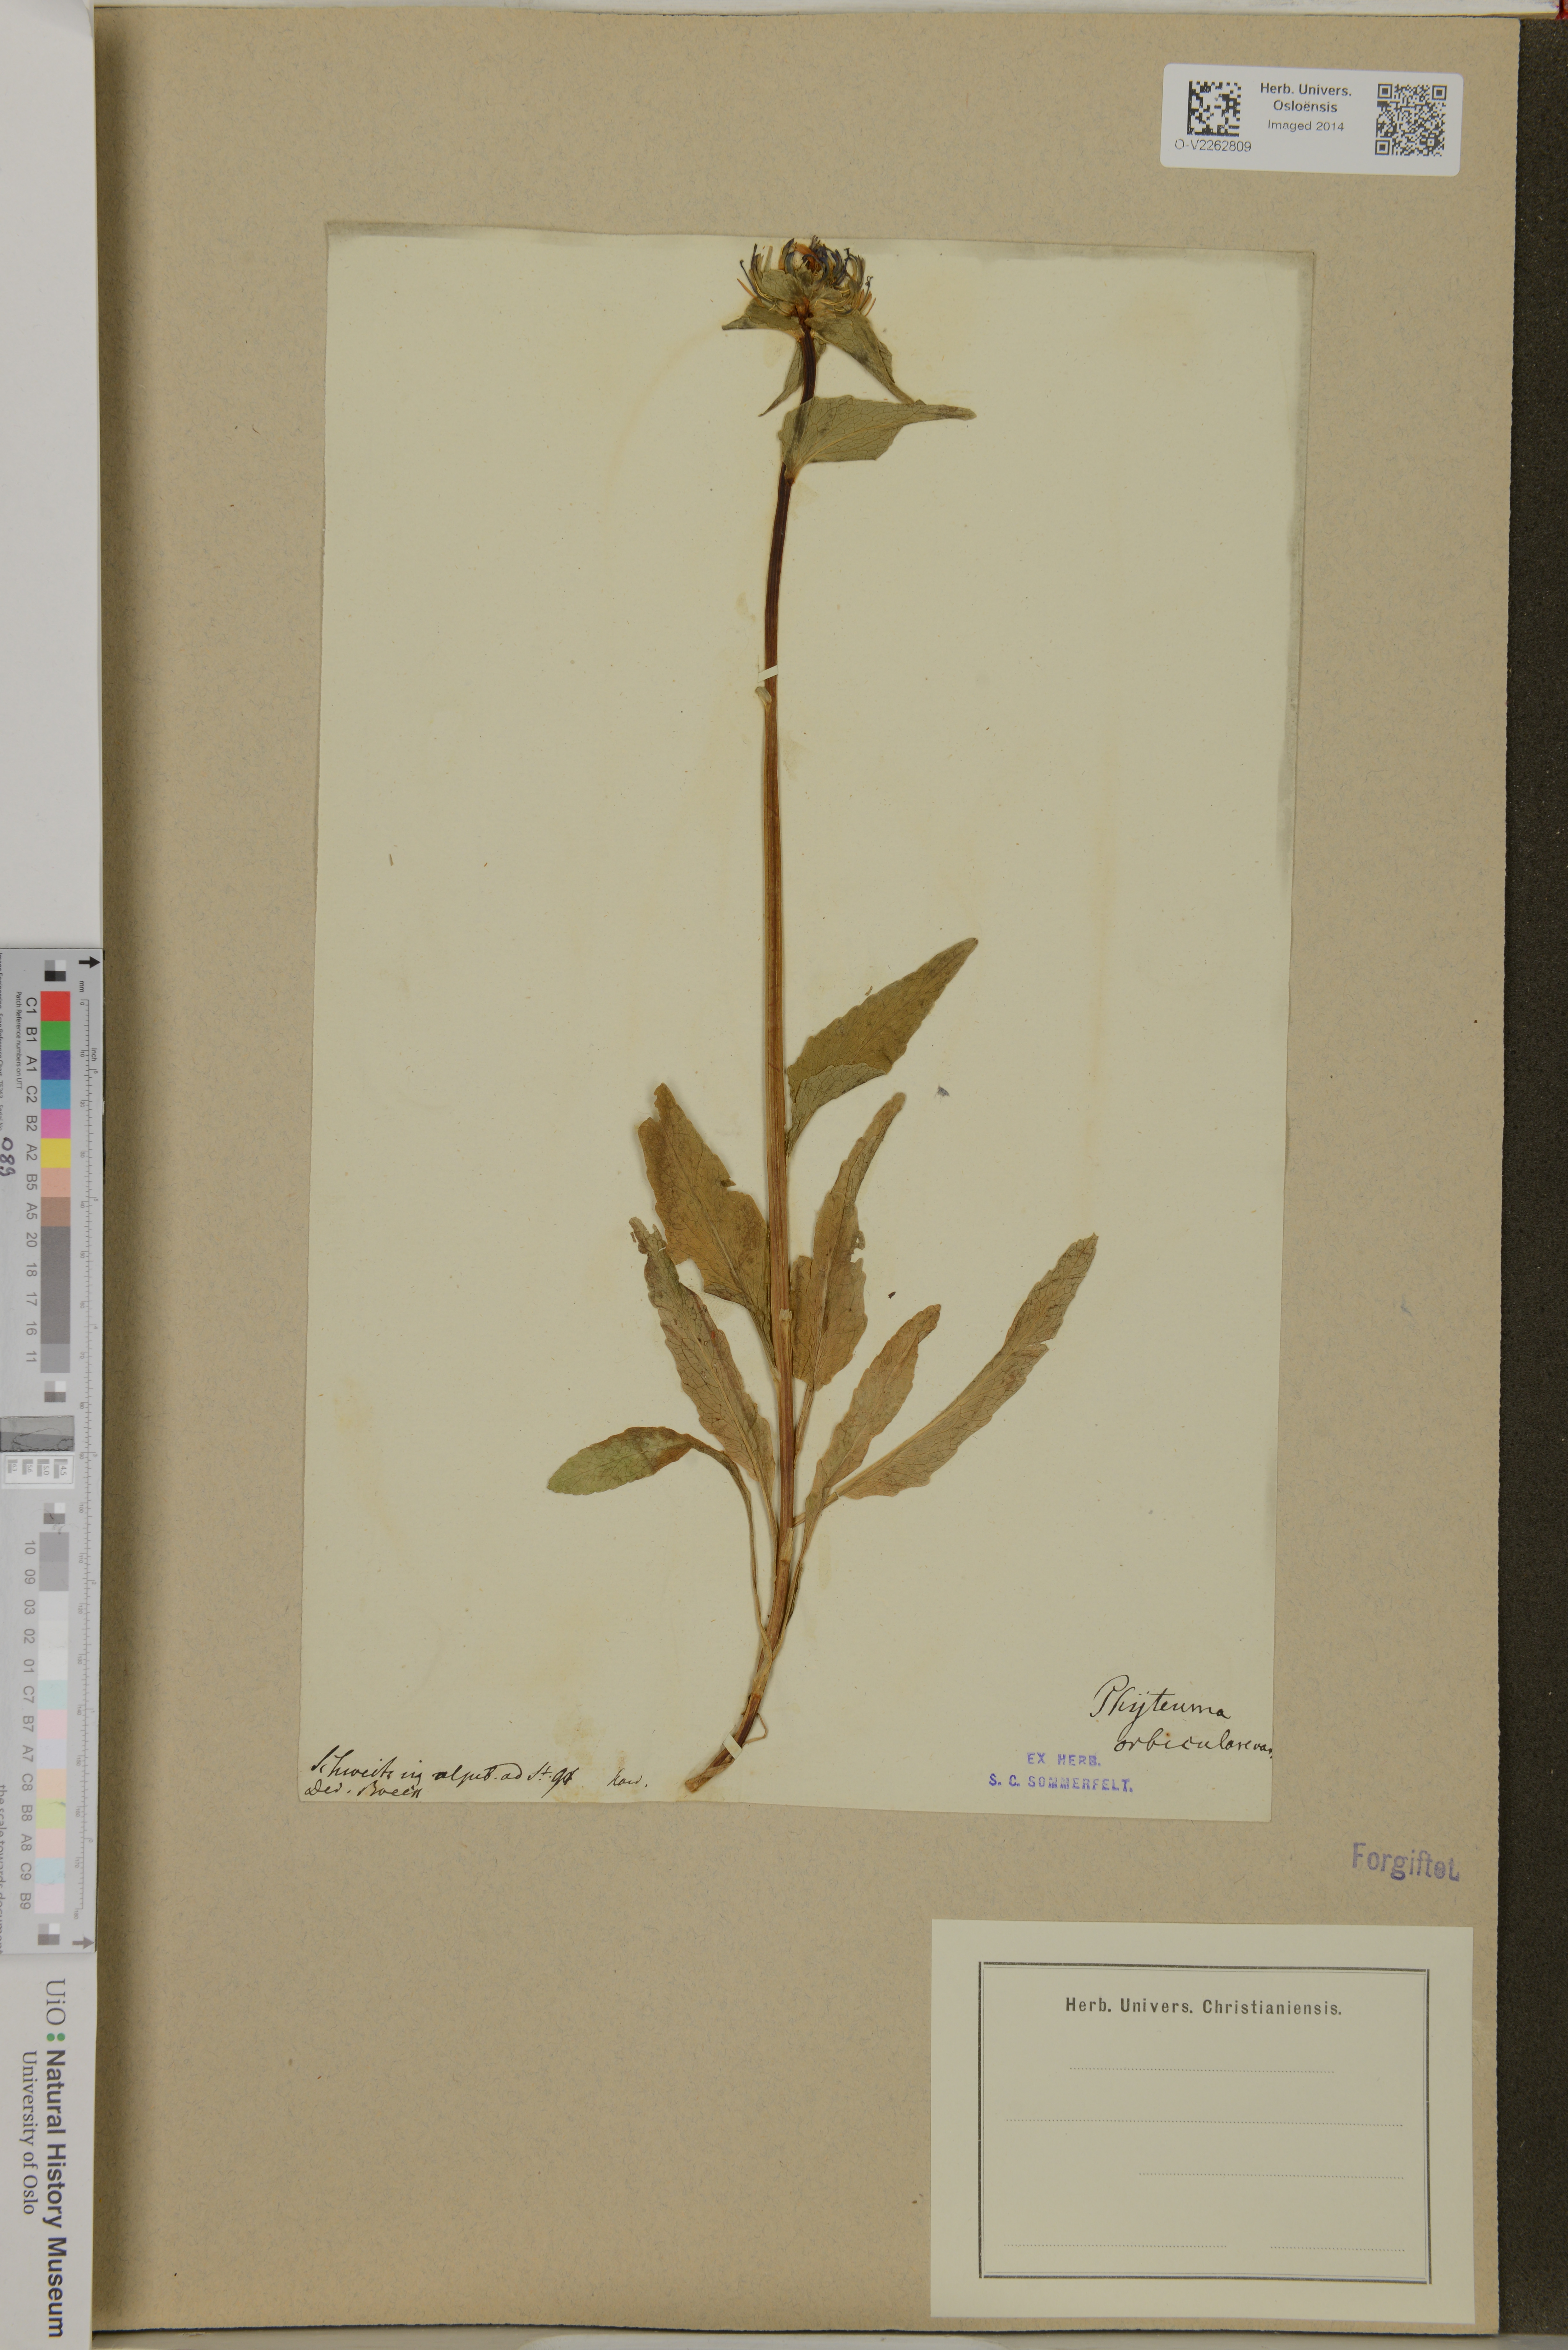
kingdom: Plantae
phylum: Tracheophyta
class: Magnoliopsida
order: Asterales
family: Campanulaceae
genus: Phyteuma
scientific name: Phyteuma orbiculare
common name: Round-headed rampion
